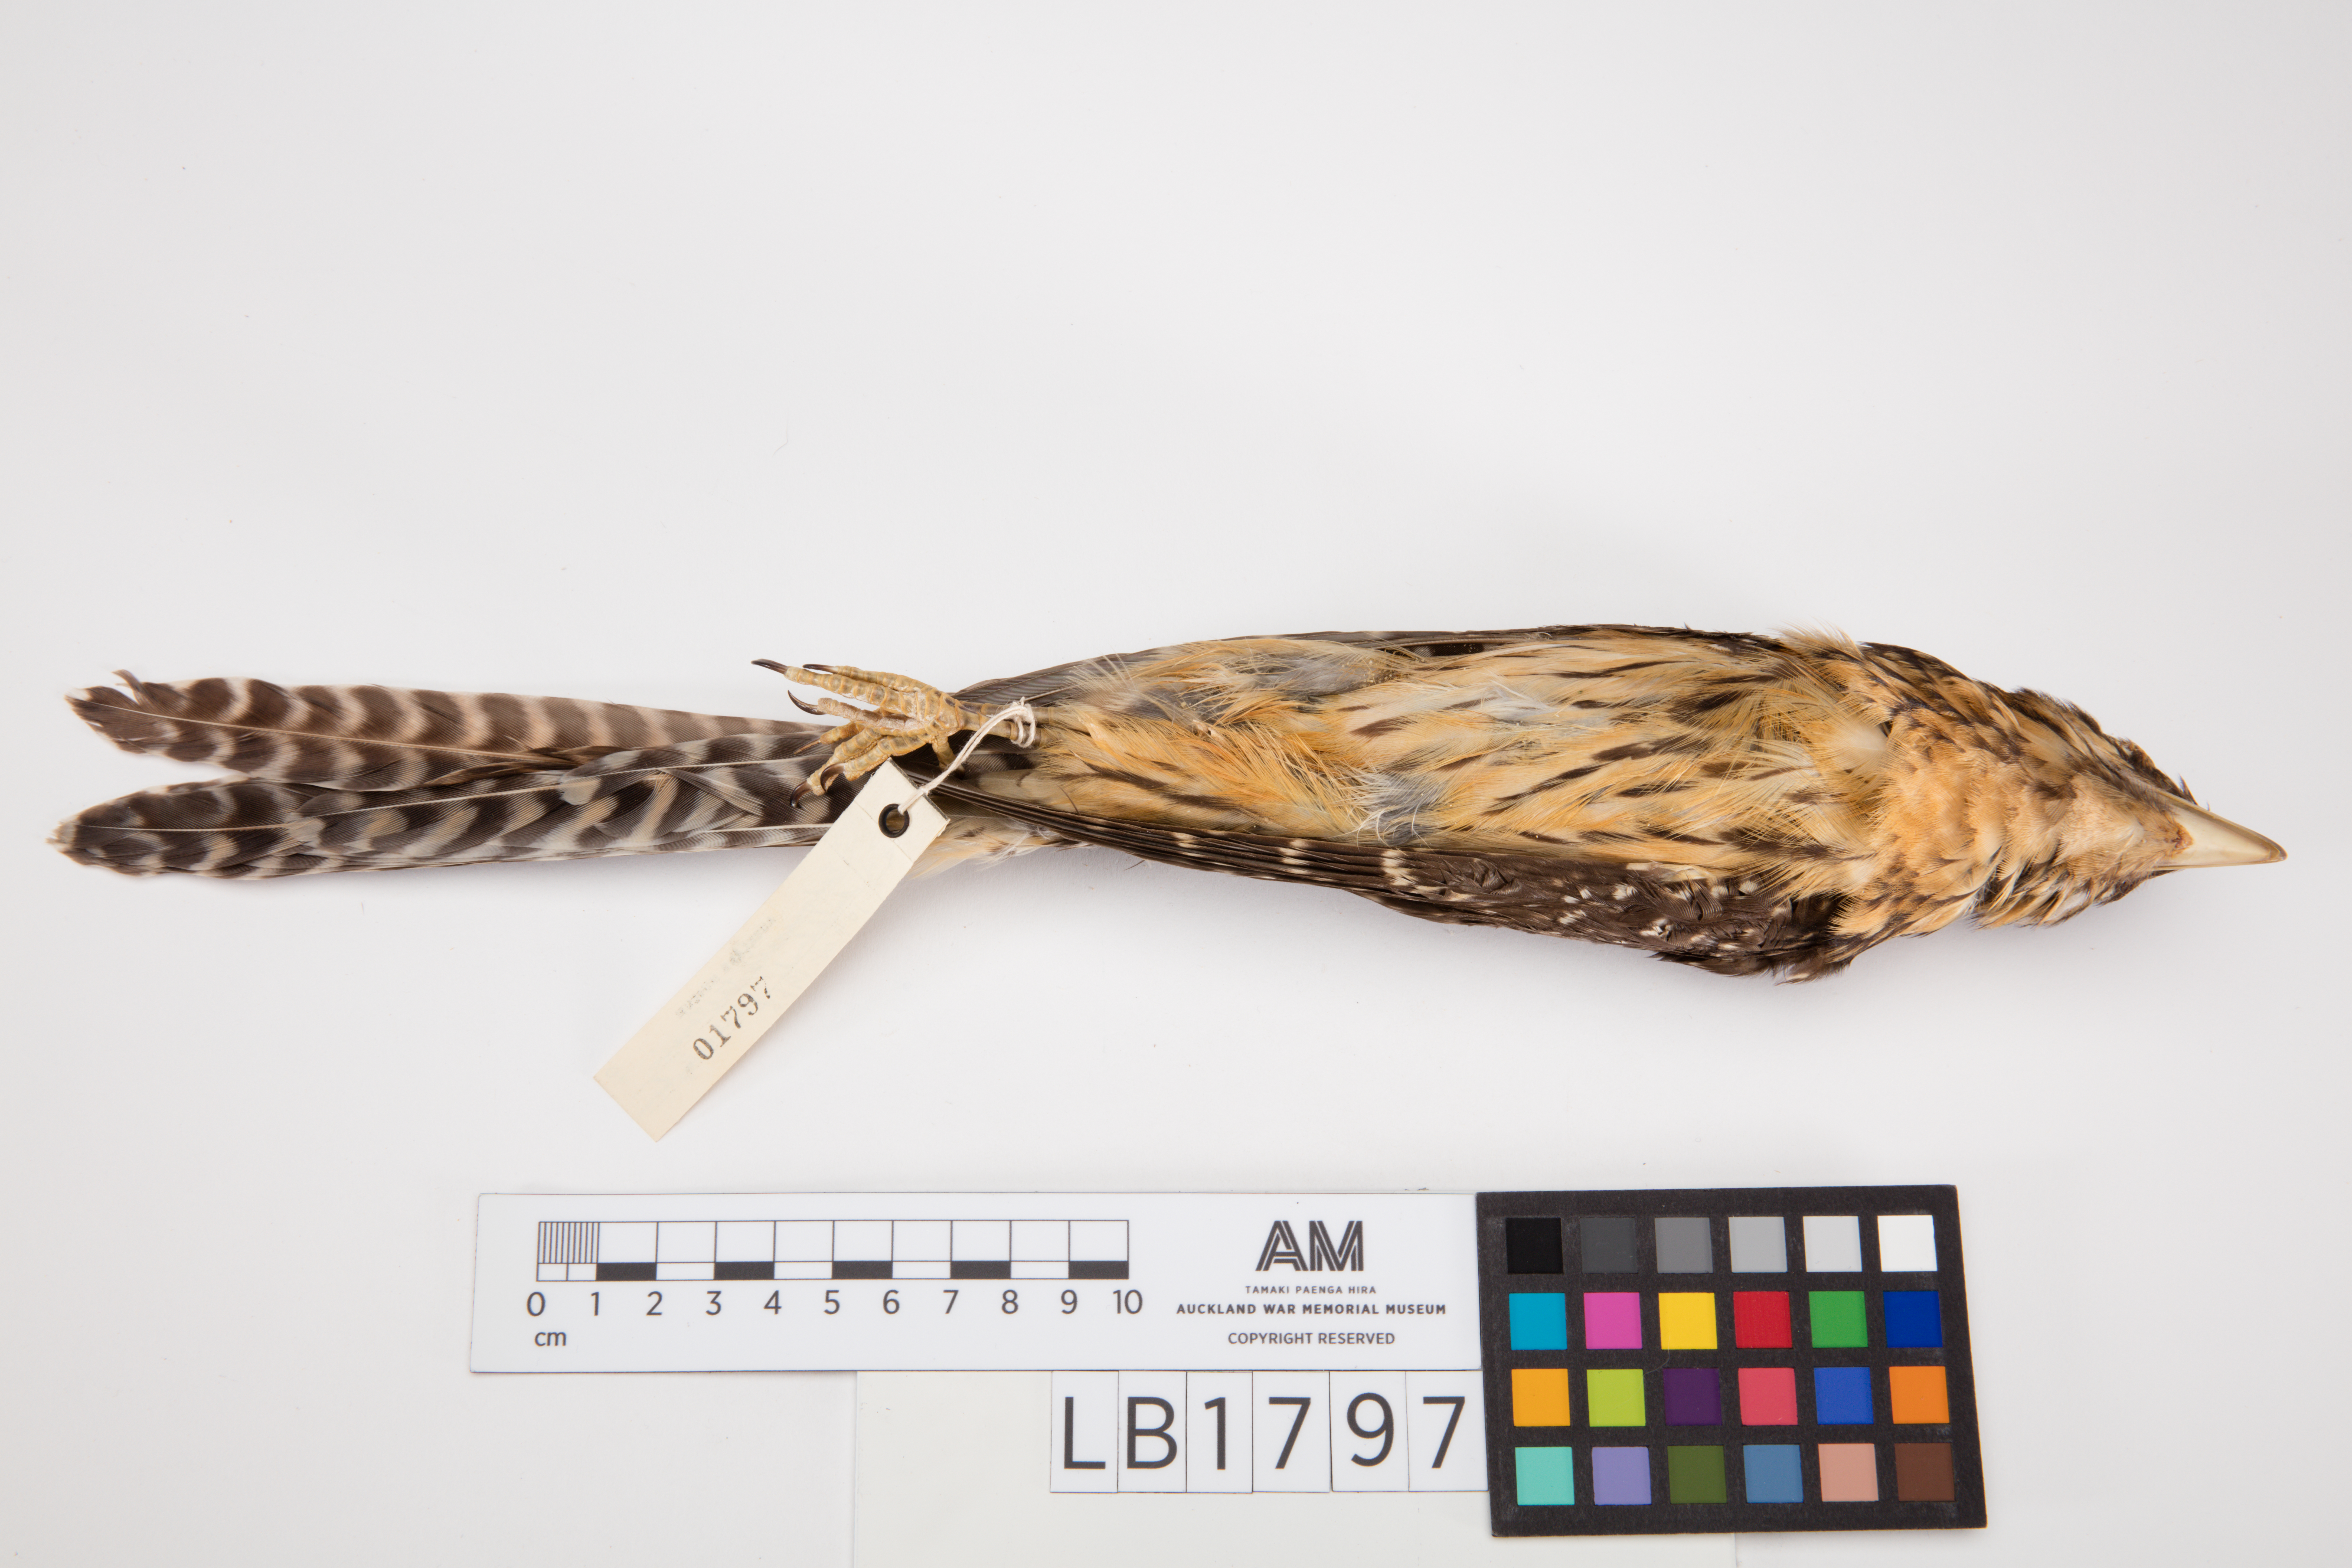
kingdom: Animalia
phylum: Chordata
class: Aves
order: Cuculiformes
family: Cuculidae
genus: Urodynamis
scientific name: Urodynamis taitensis
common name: Long-tailed koel
